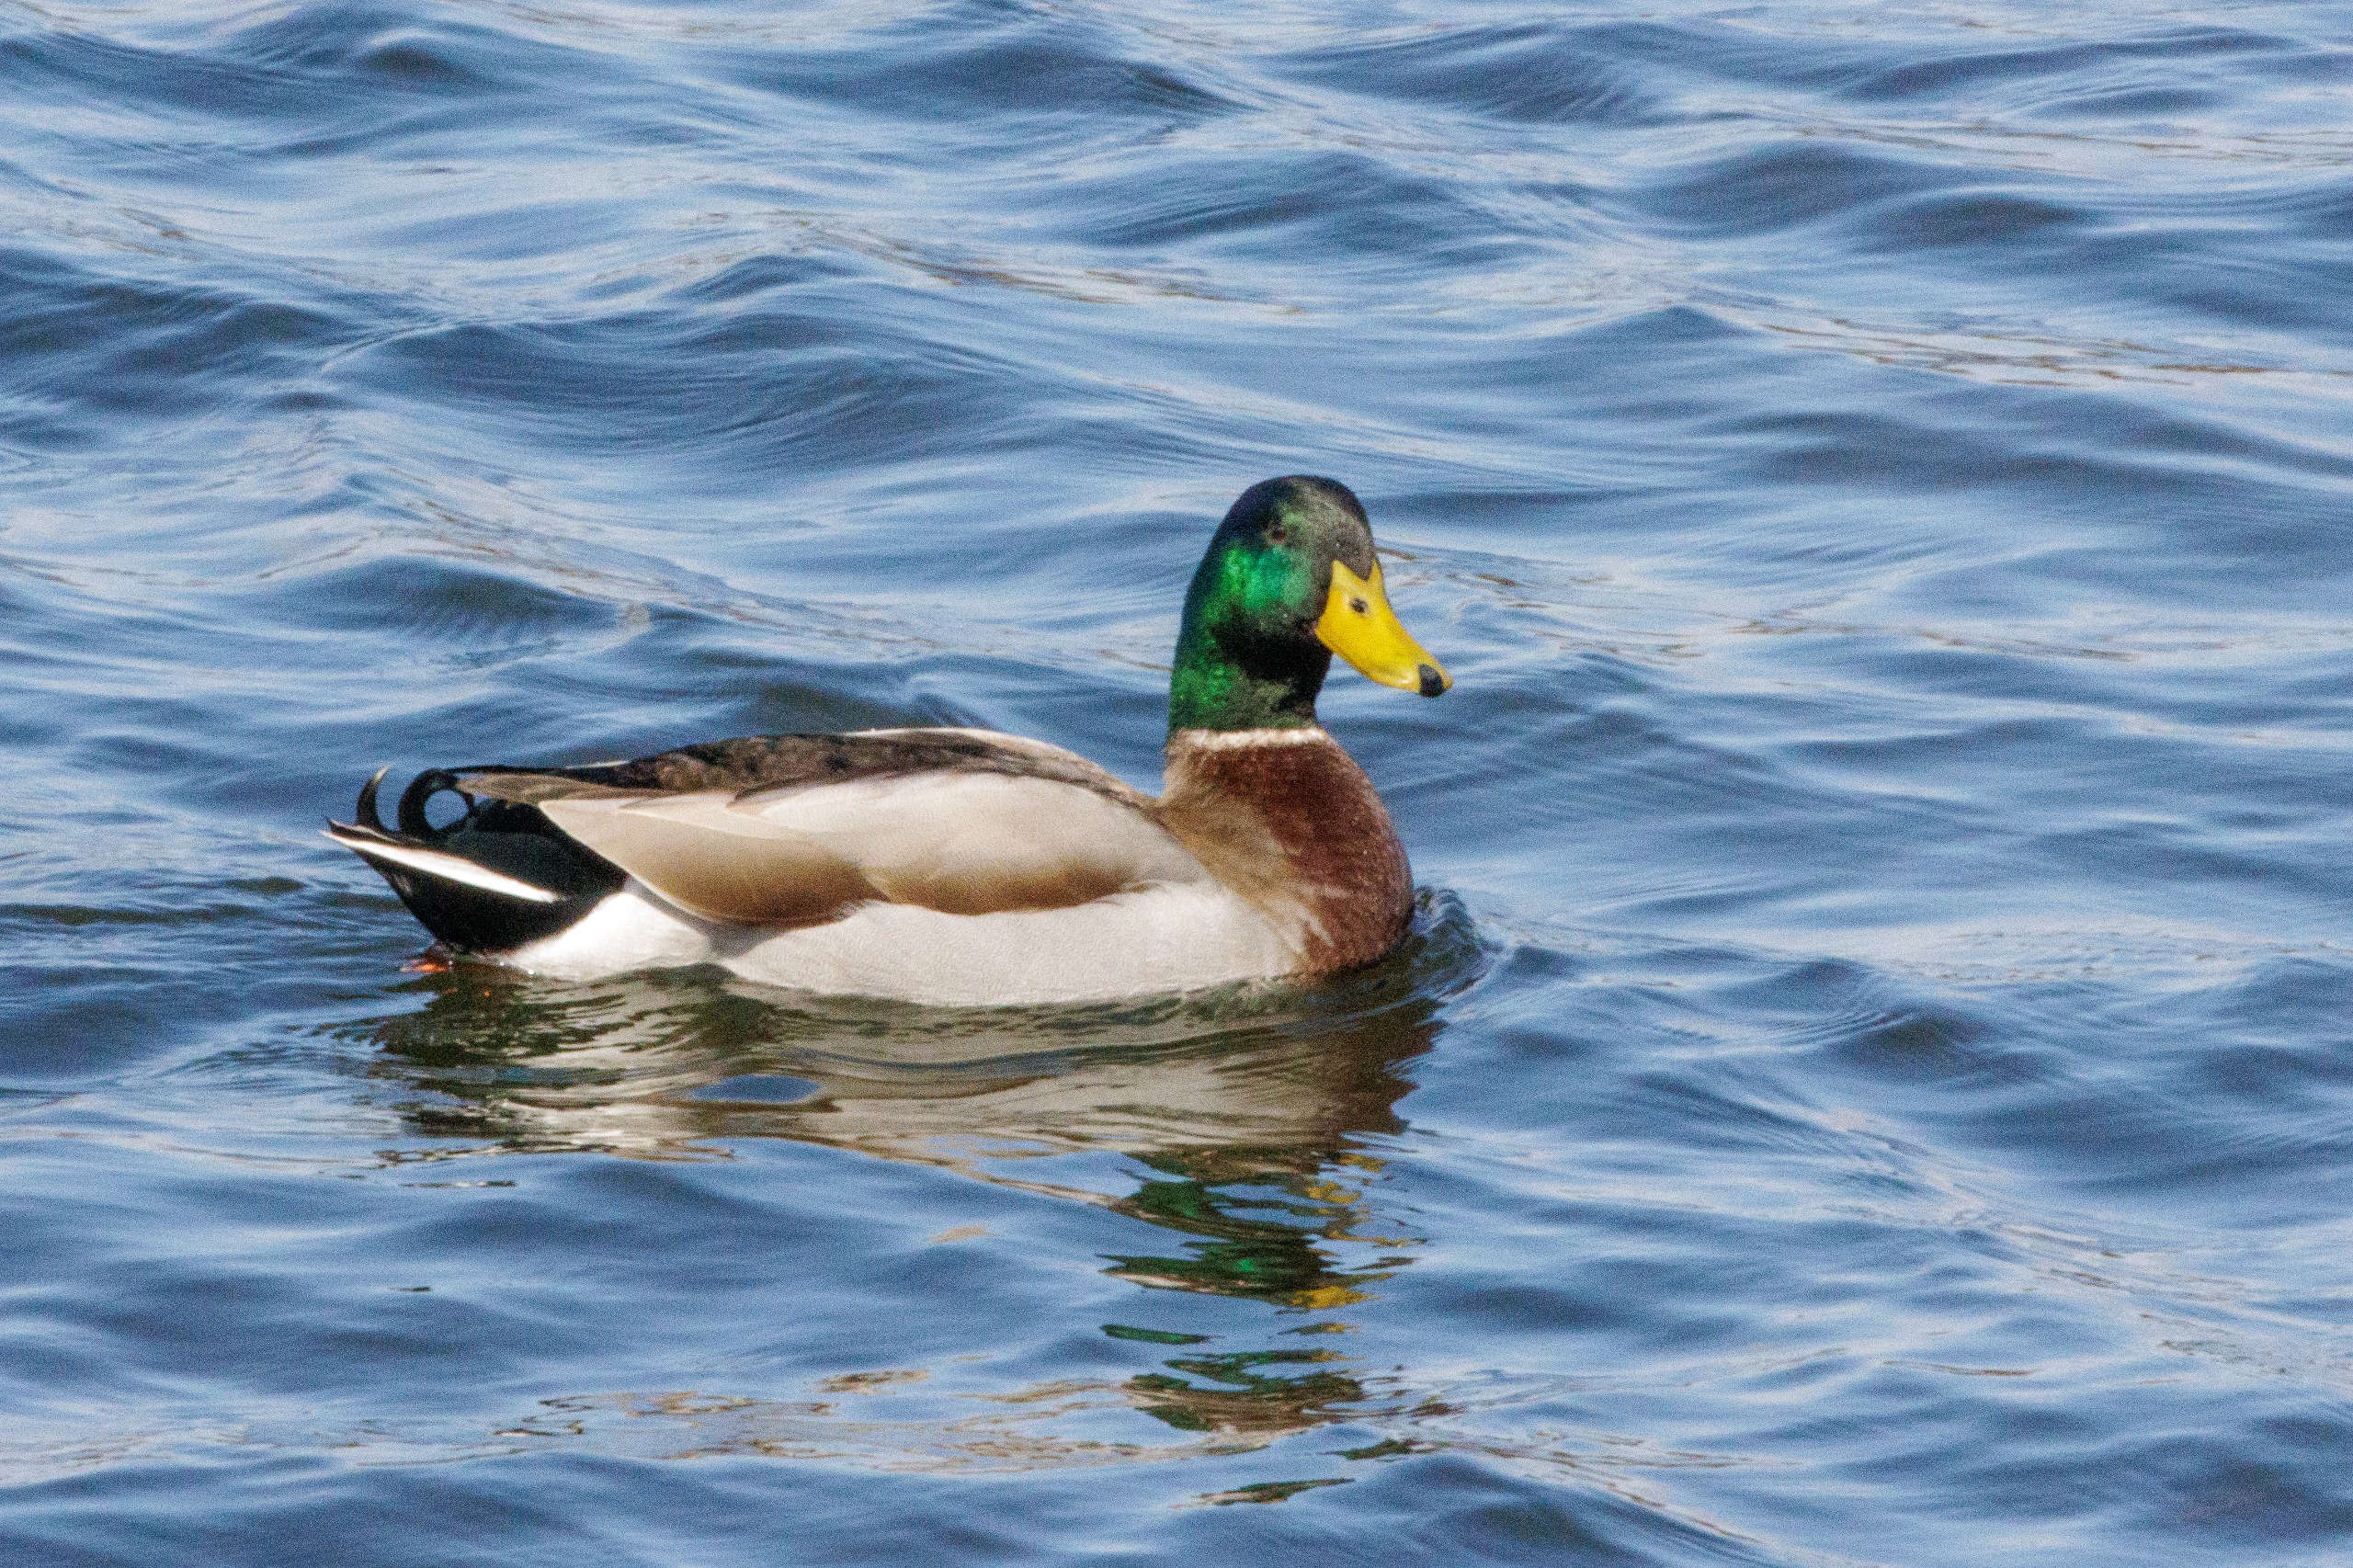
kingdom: Animalia
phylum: Chordata
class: Aves
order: Anseriformes
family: Anatidae
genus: Anas
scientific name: Anas platyrhynchos
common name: Gråand
